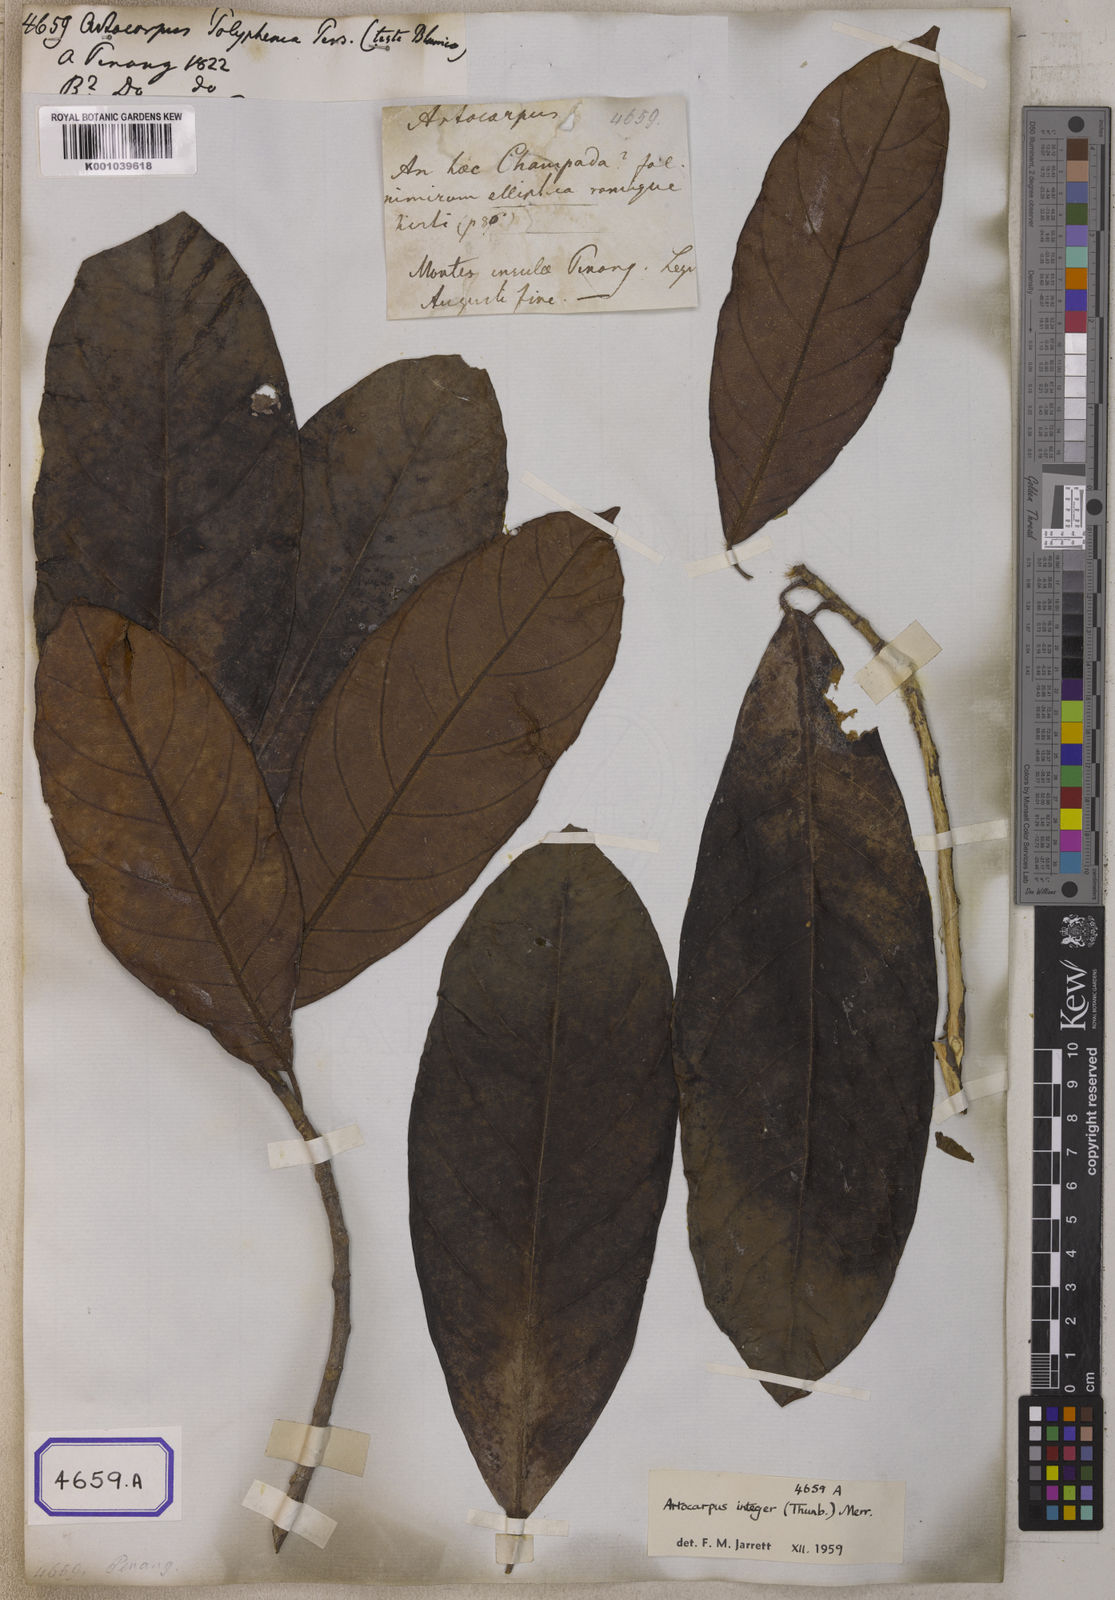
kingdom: Plantae
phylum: Tracheophyta
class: Magnoliopsida
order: Rosales
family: Moraceae
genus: Artocarpus
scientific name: Artocarpus
